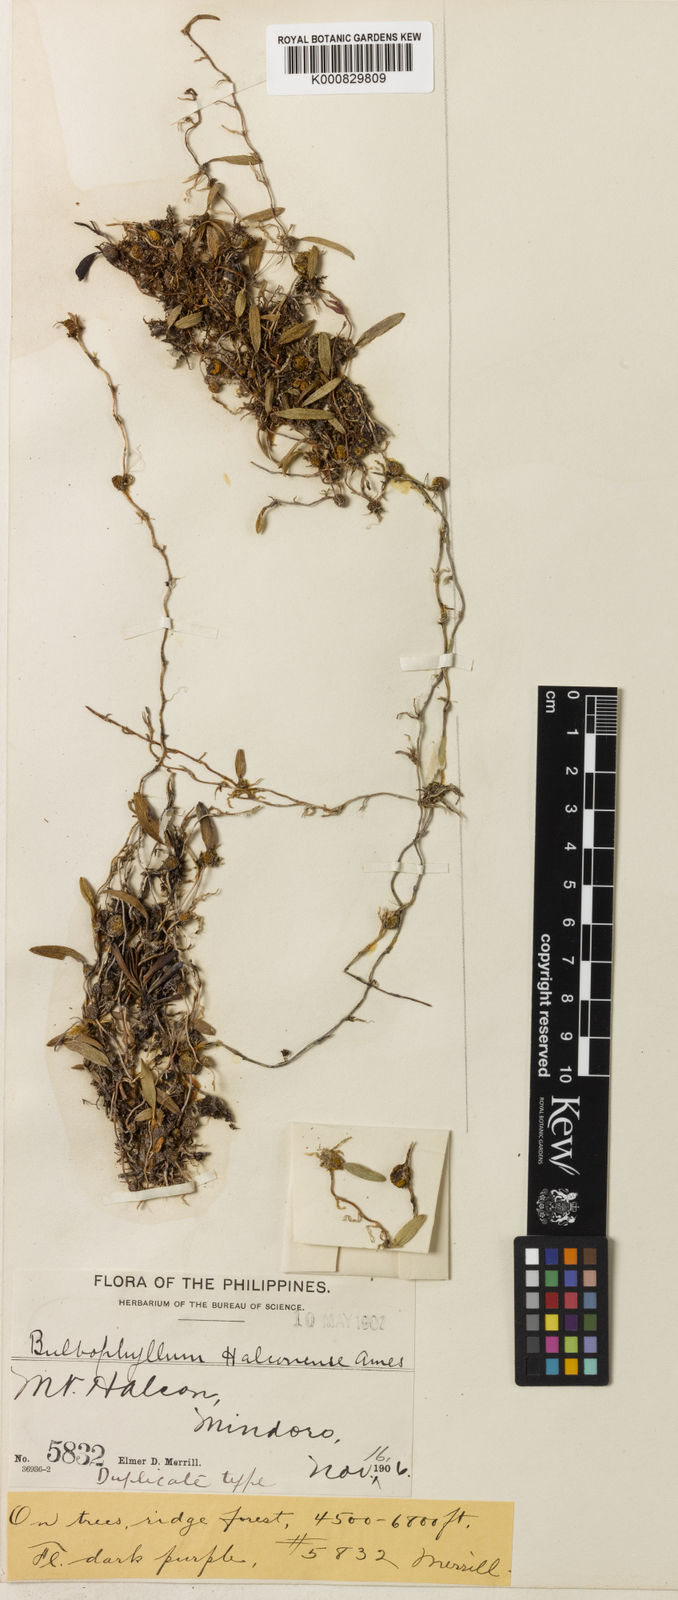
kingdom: Plantae
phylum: Tracheophyta
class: Liliopsida
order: Asparagales
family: Orchidaceae
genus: Bulbophyllum
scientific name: Bulbophyllum halconense
